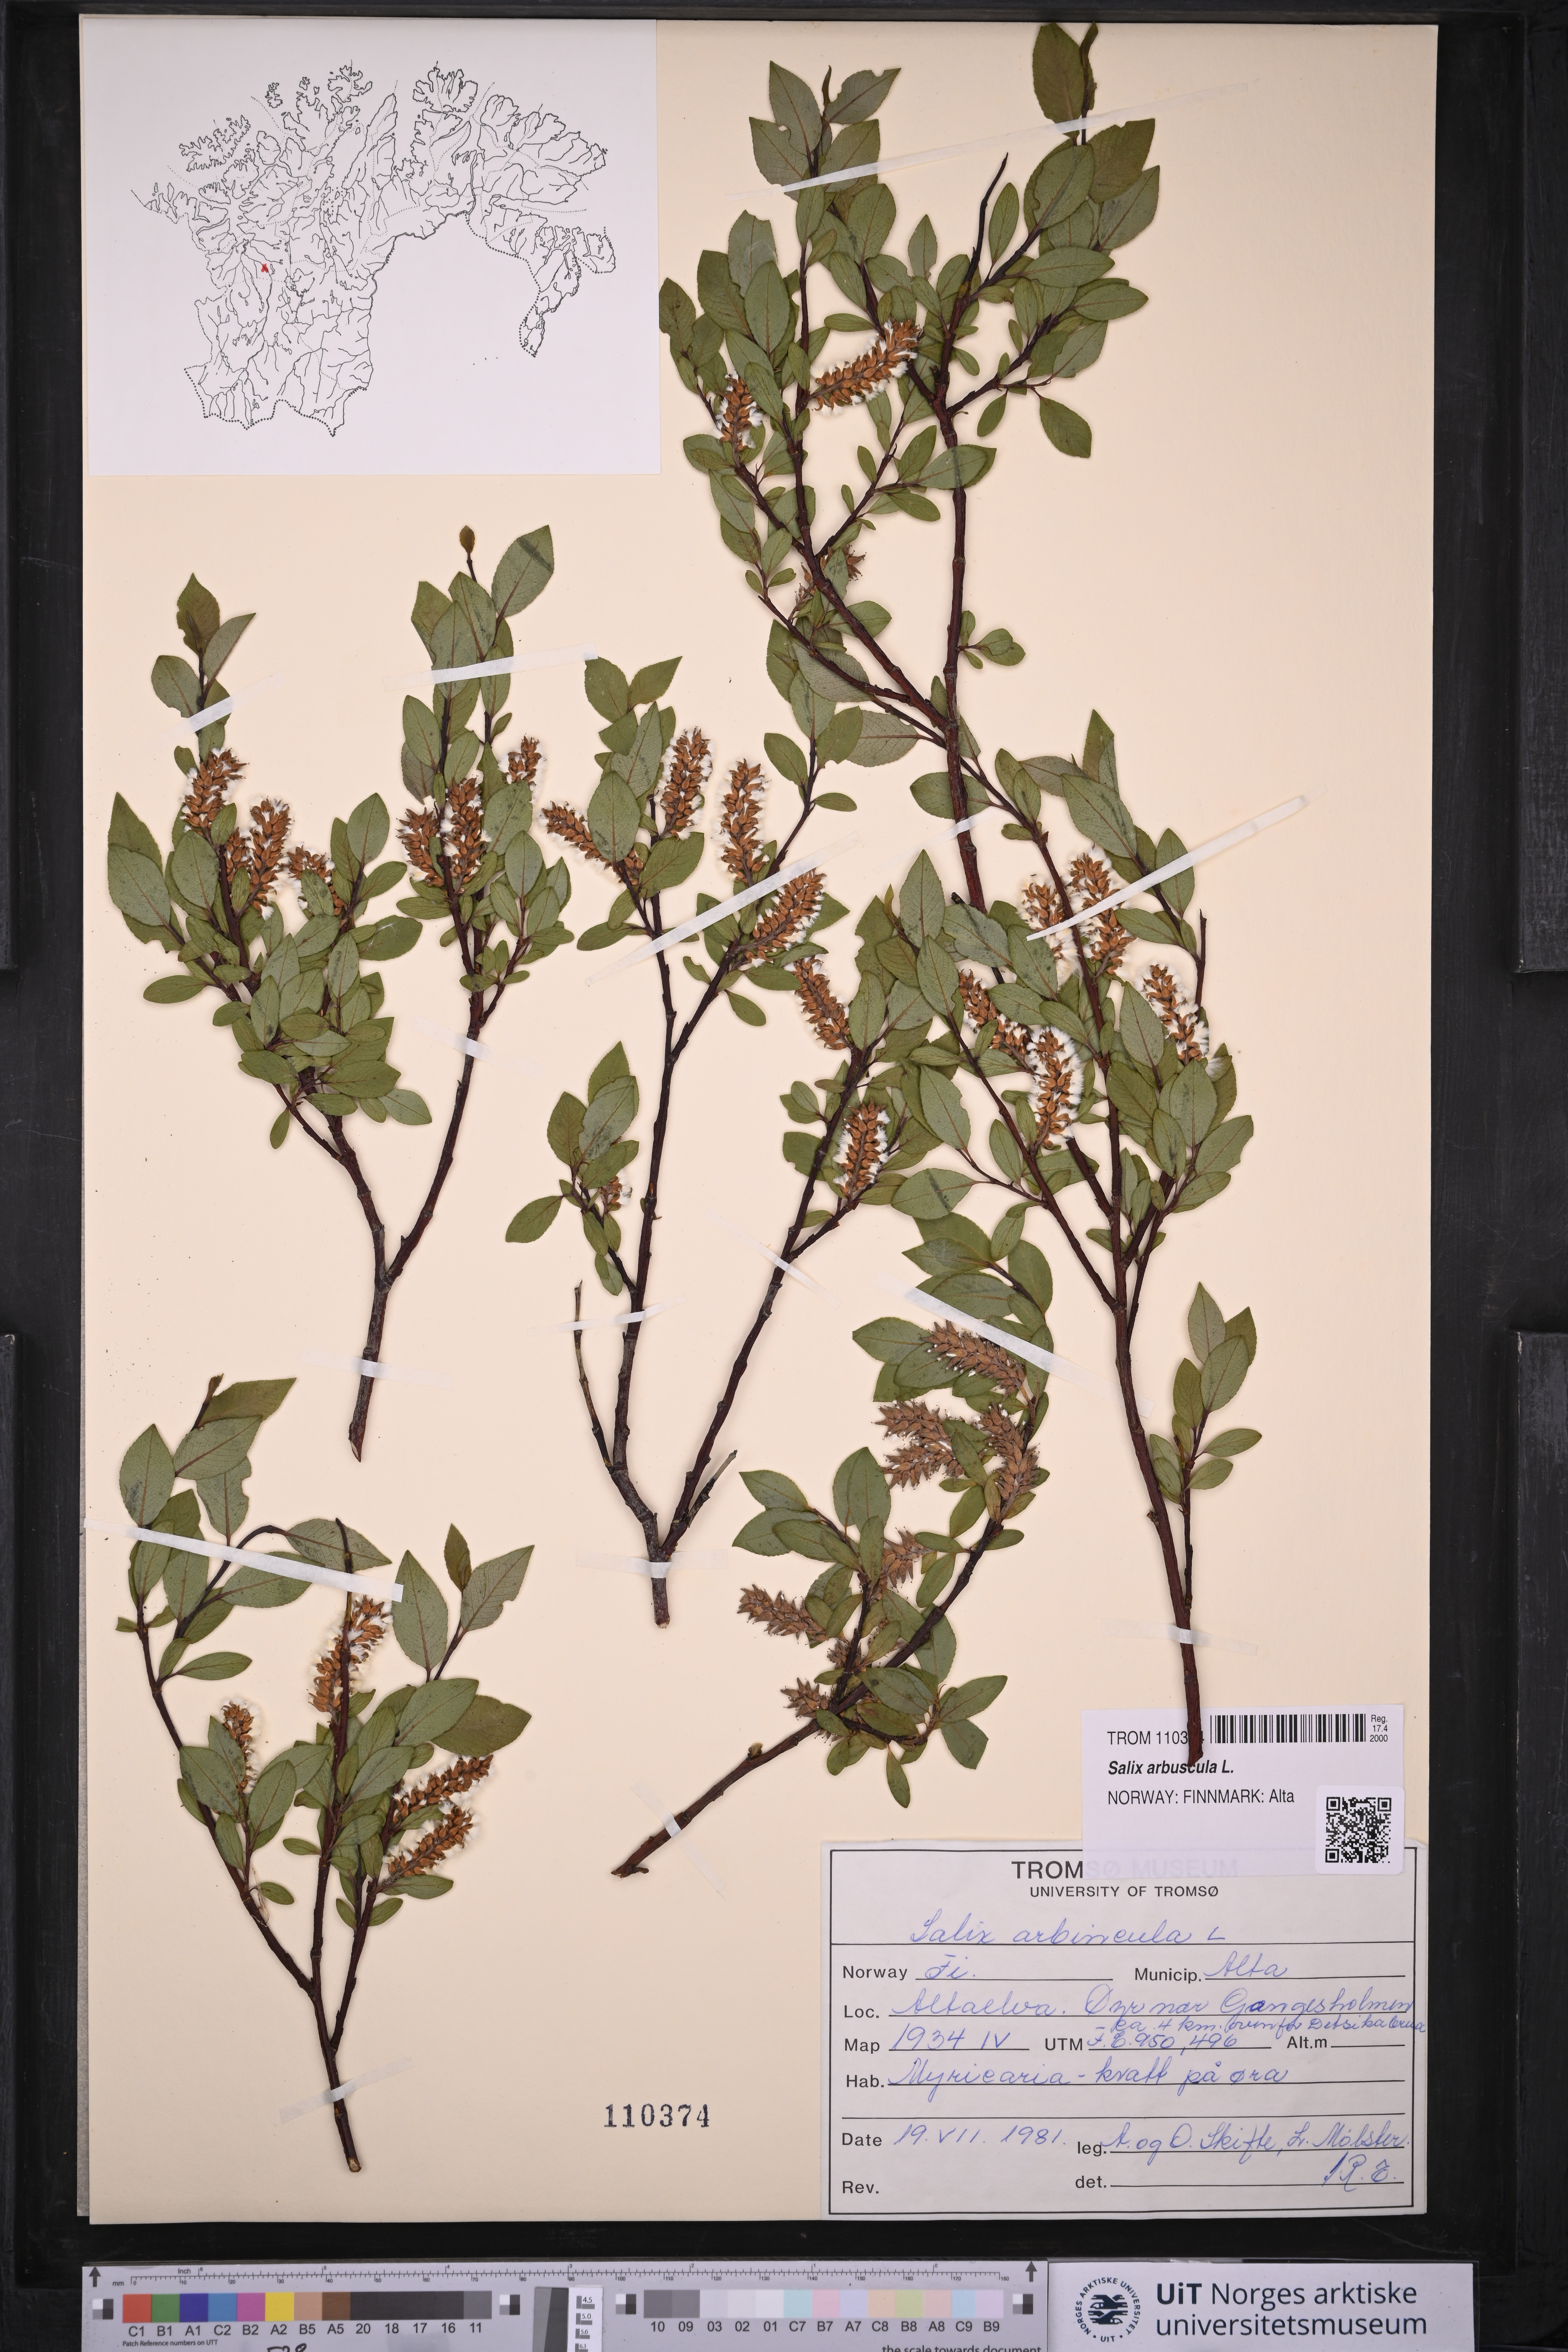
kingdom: Plantae
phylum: Tracheophyta
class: Magnoliopsida
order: Malpighiales
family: Salicaceae
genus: Salix
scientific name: Salix arbuscula
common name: Mountain willow
